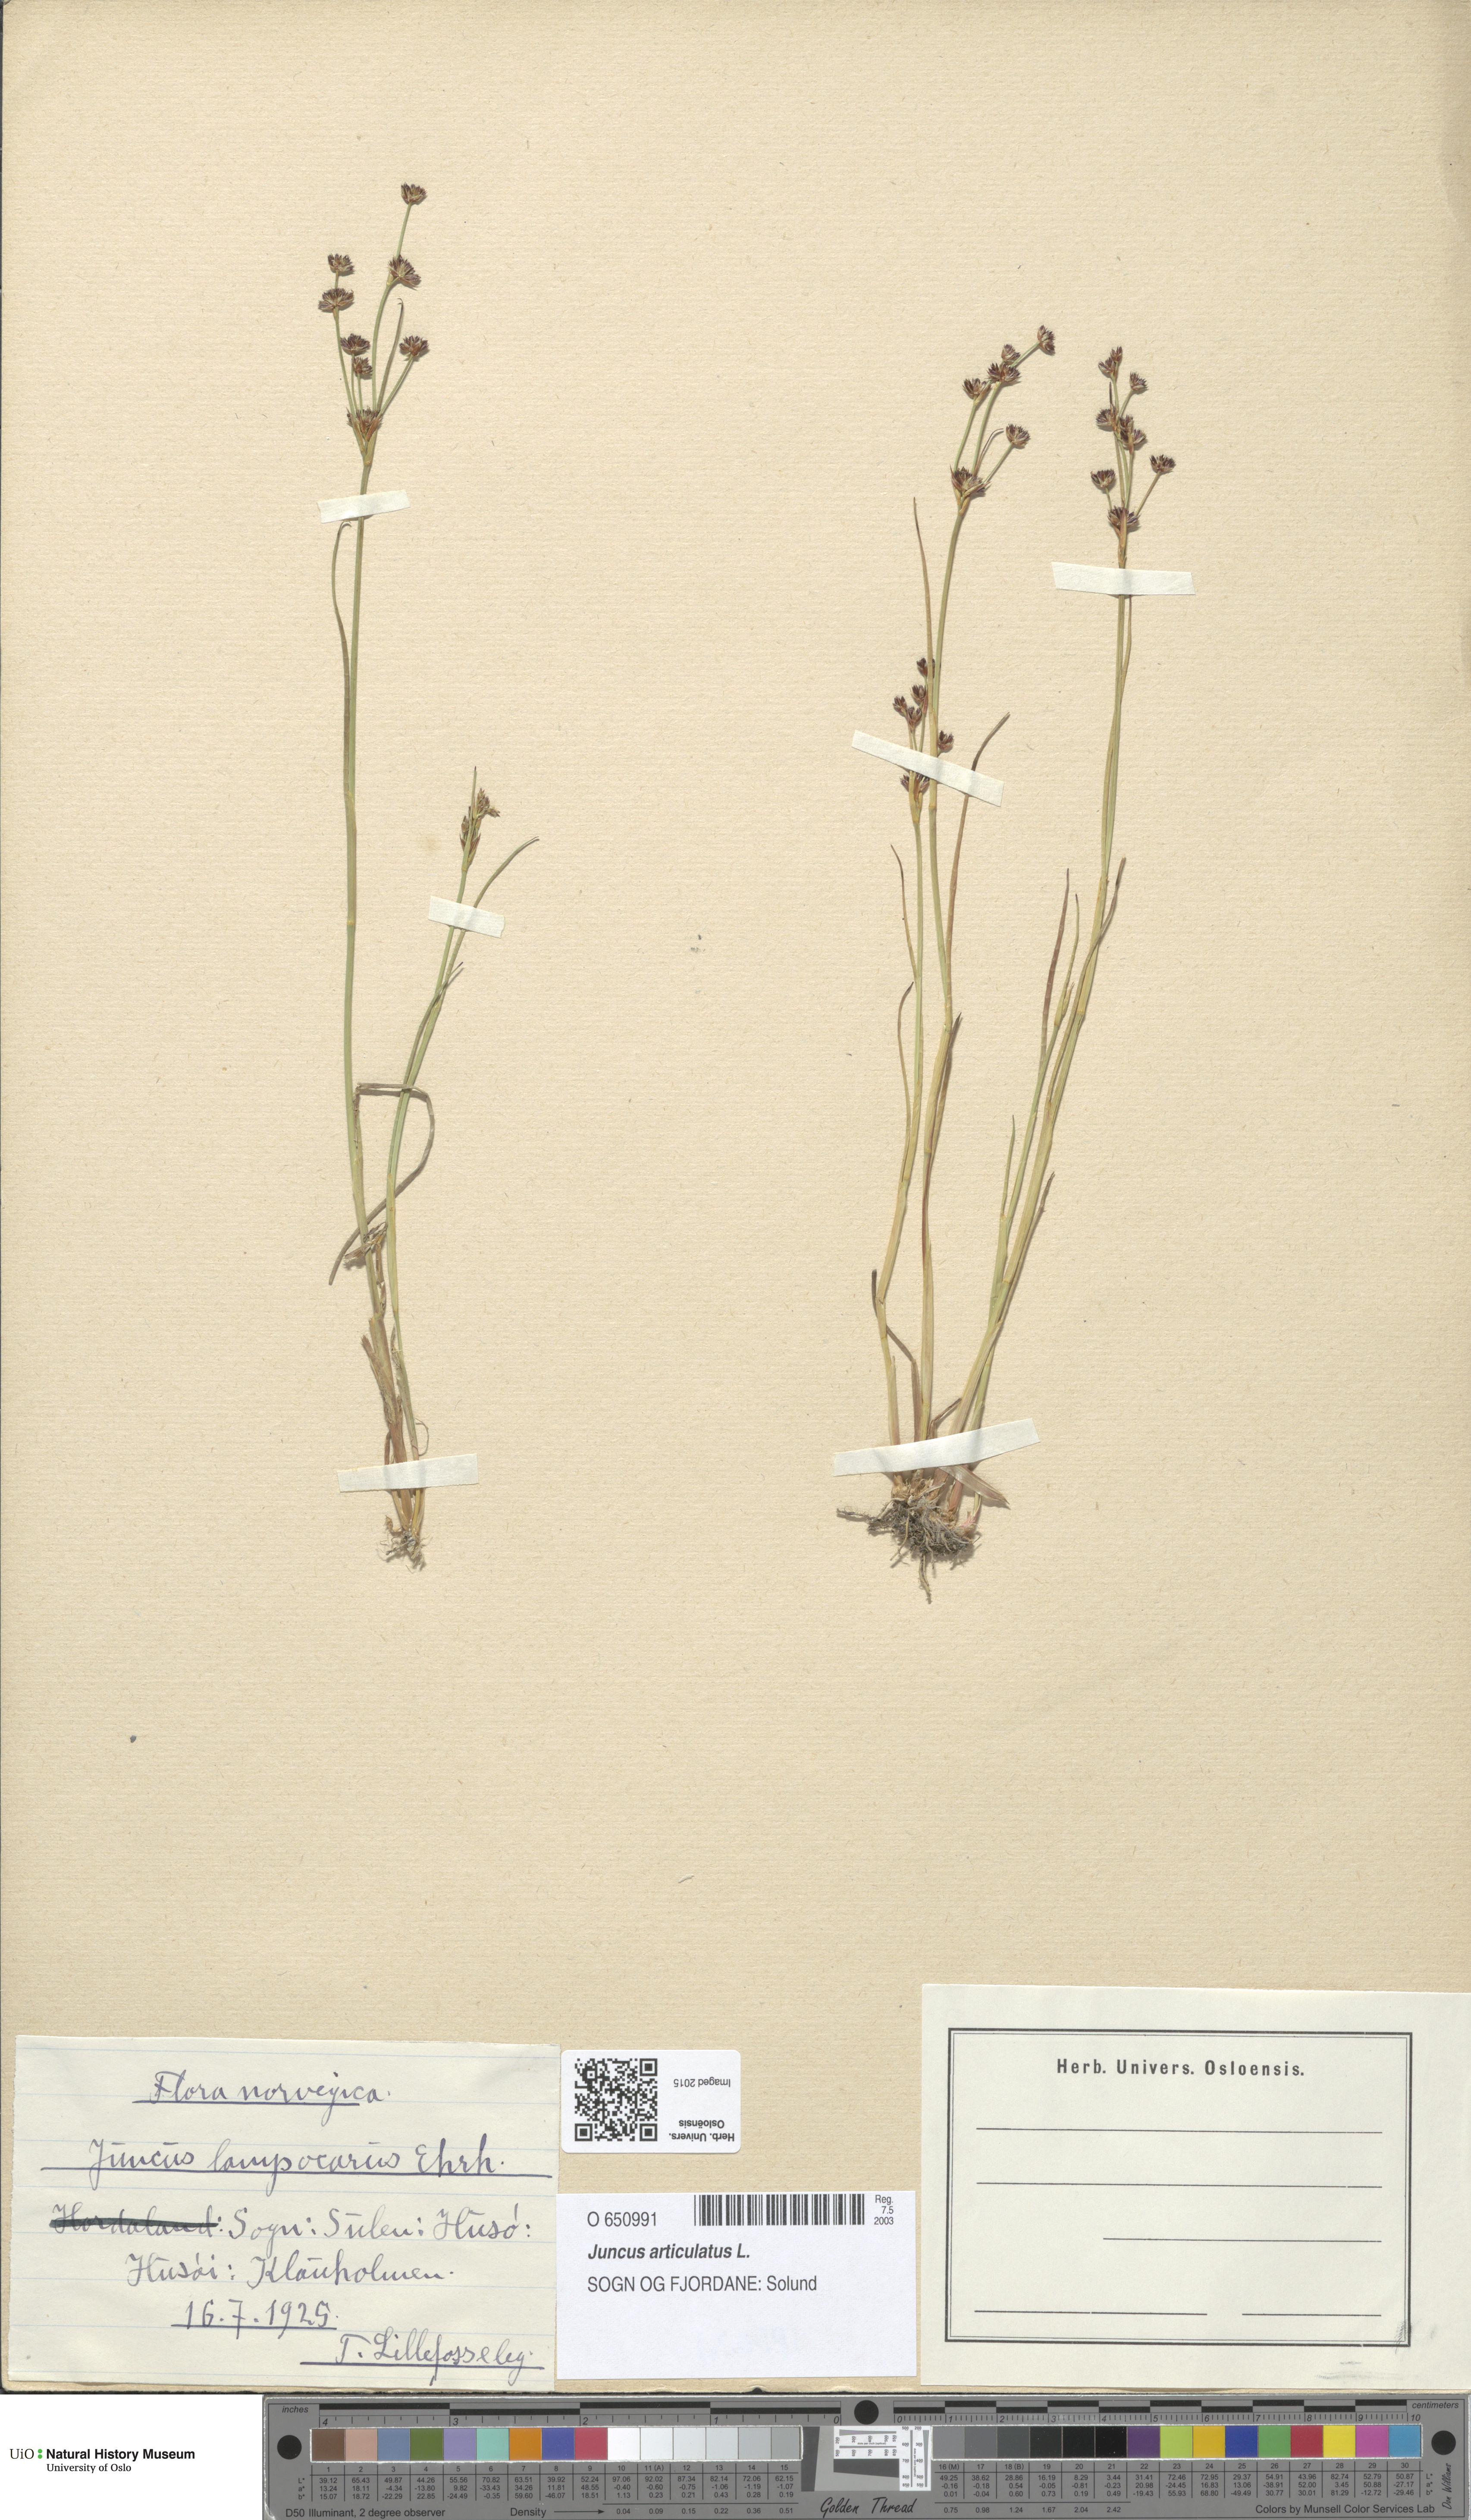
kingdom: Plantae
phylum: Tracheophyta
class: Liliopsida
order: Poales
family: Juncaceae
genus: Juncus
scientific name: Juncus articulatus
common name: Jointed rush
